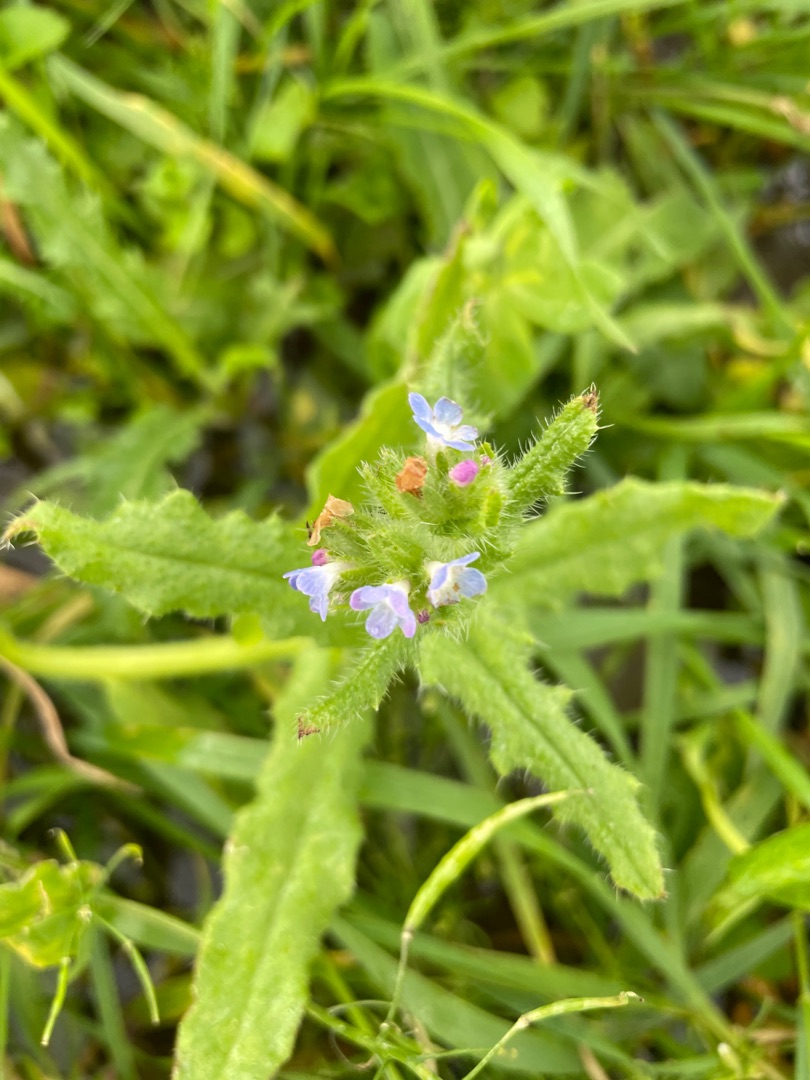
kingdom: Plantae
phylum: Tracheophyta
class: Magnoliopsida
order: Boraginales
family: Boraginaceae
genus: Lycopsis
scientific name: Lycopsis arvensis
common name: Krumhals
